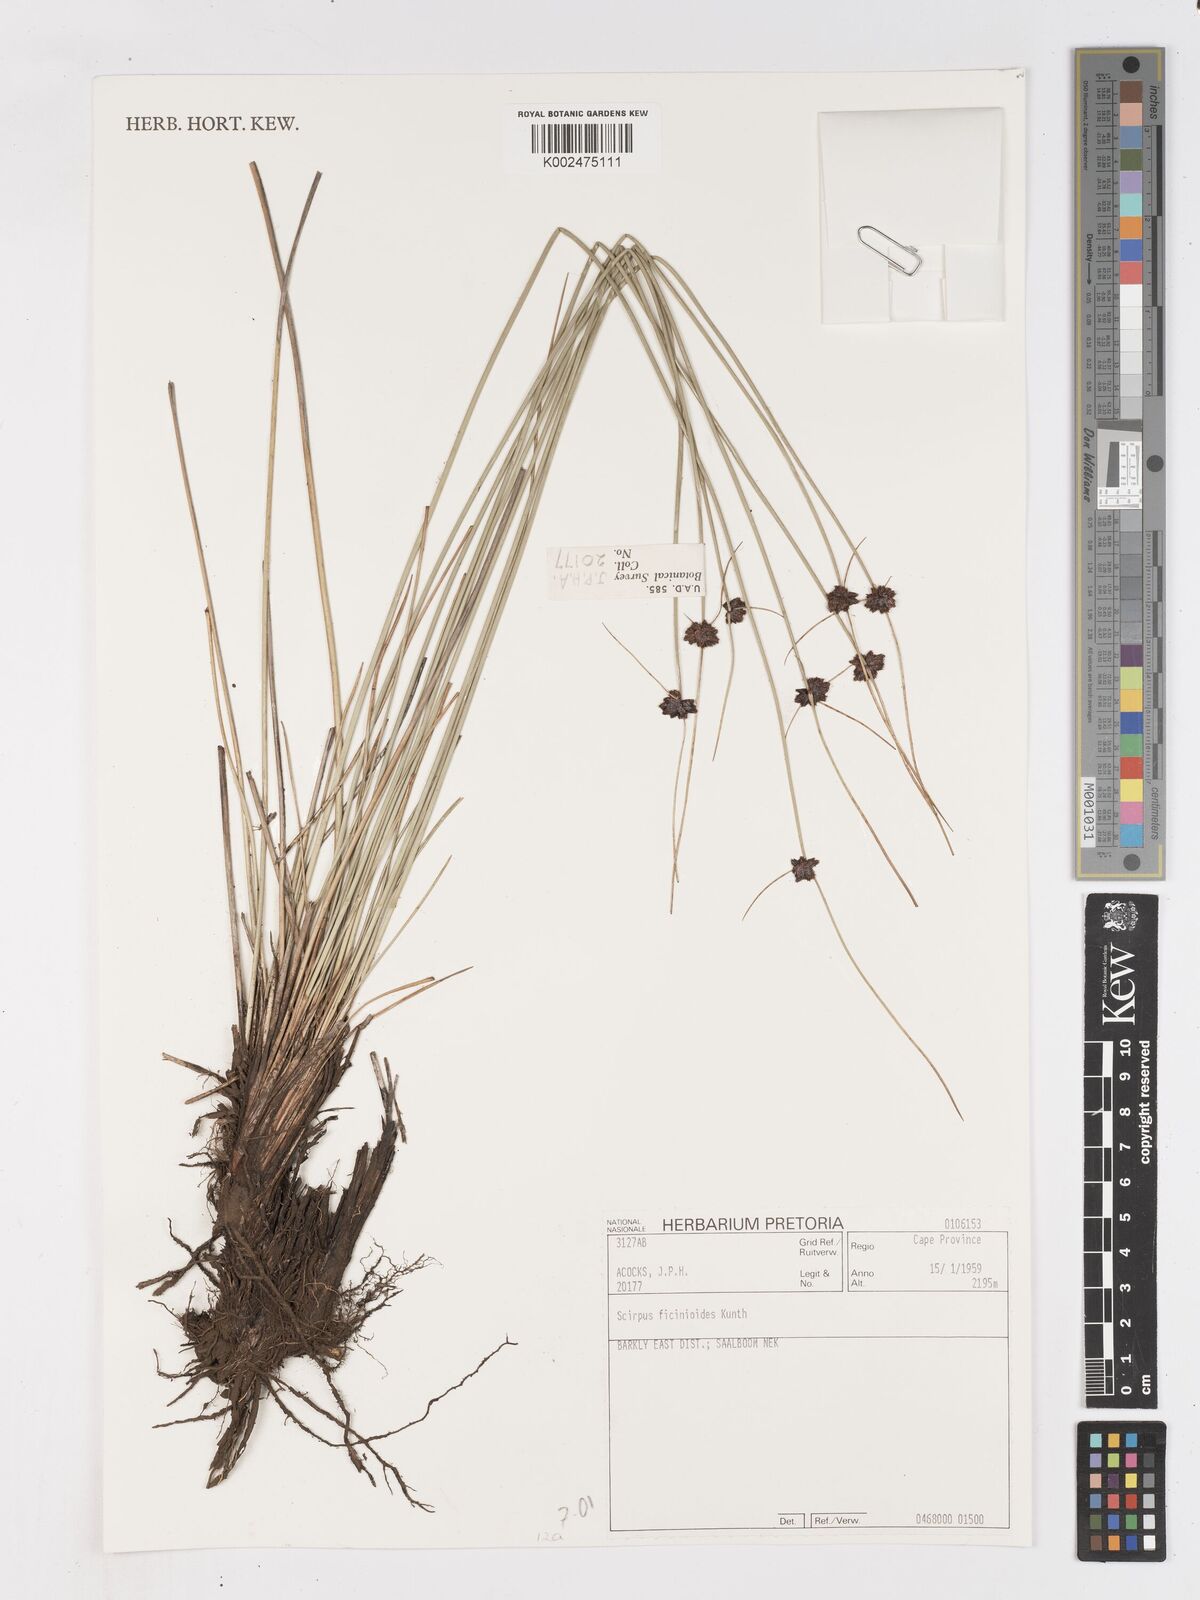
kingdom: Plantae
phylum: Tracheophyta
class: Liliopsida
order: Poales
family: Cyperaceae
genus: Ficinia
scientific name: Ficinia filiformis
